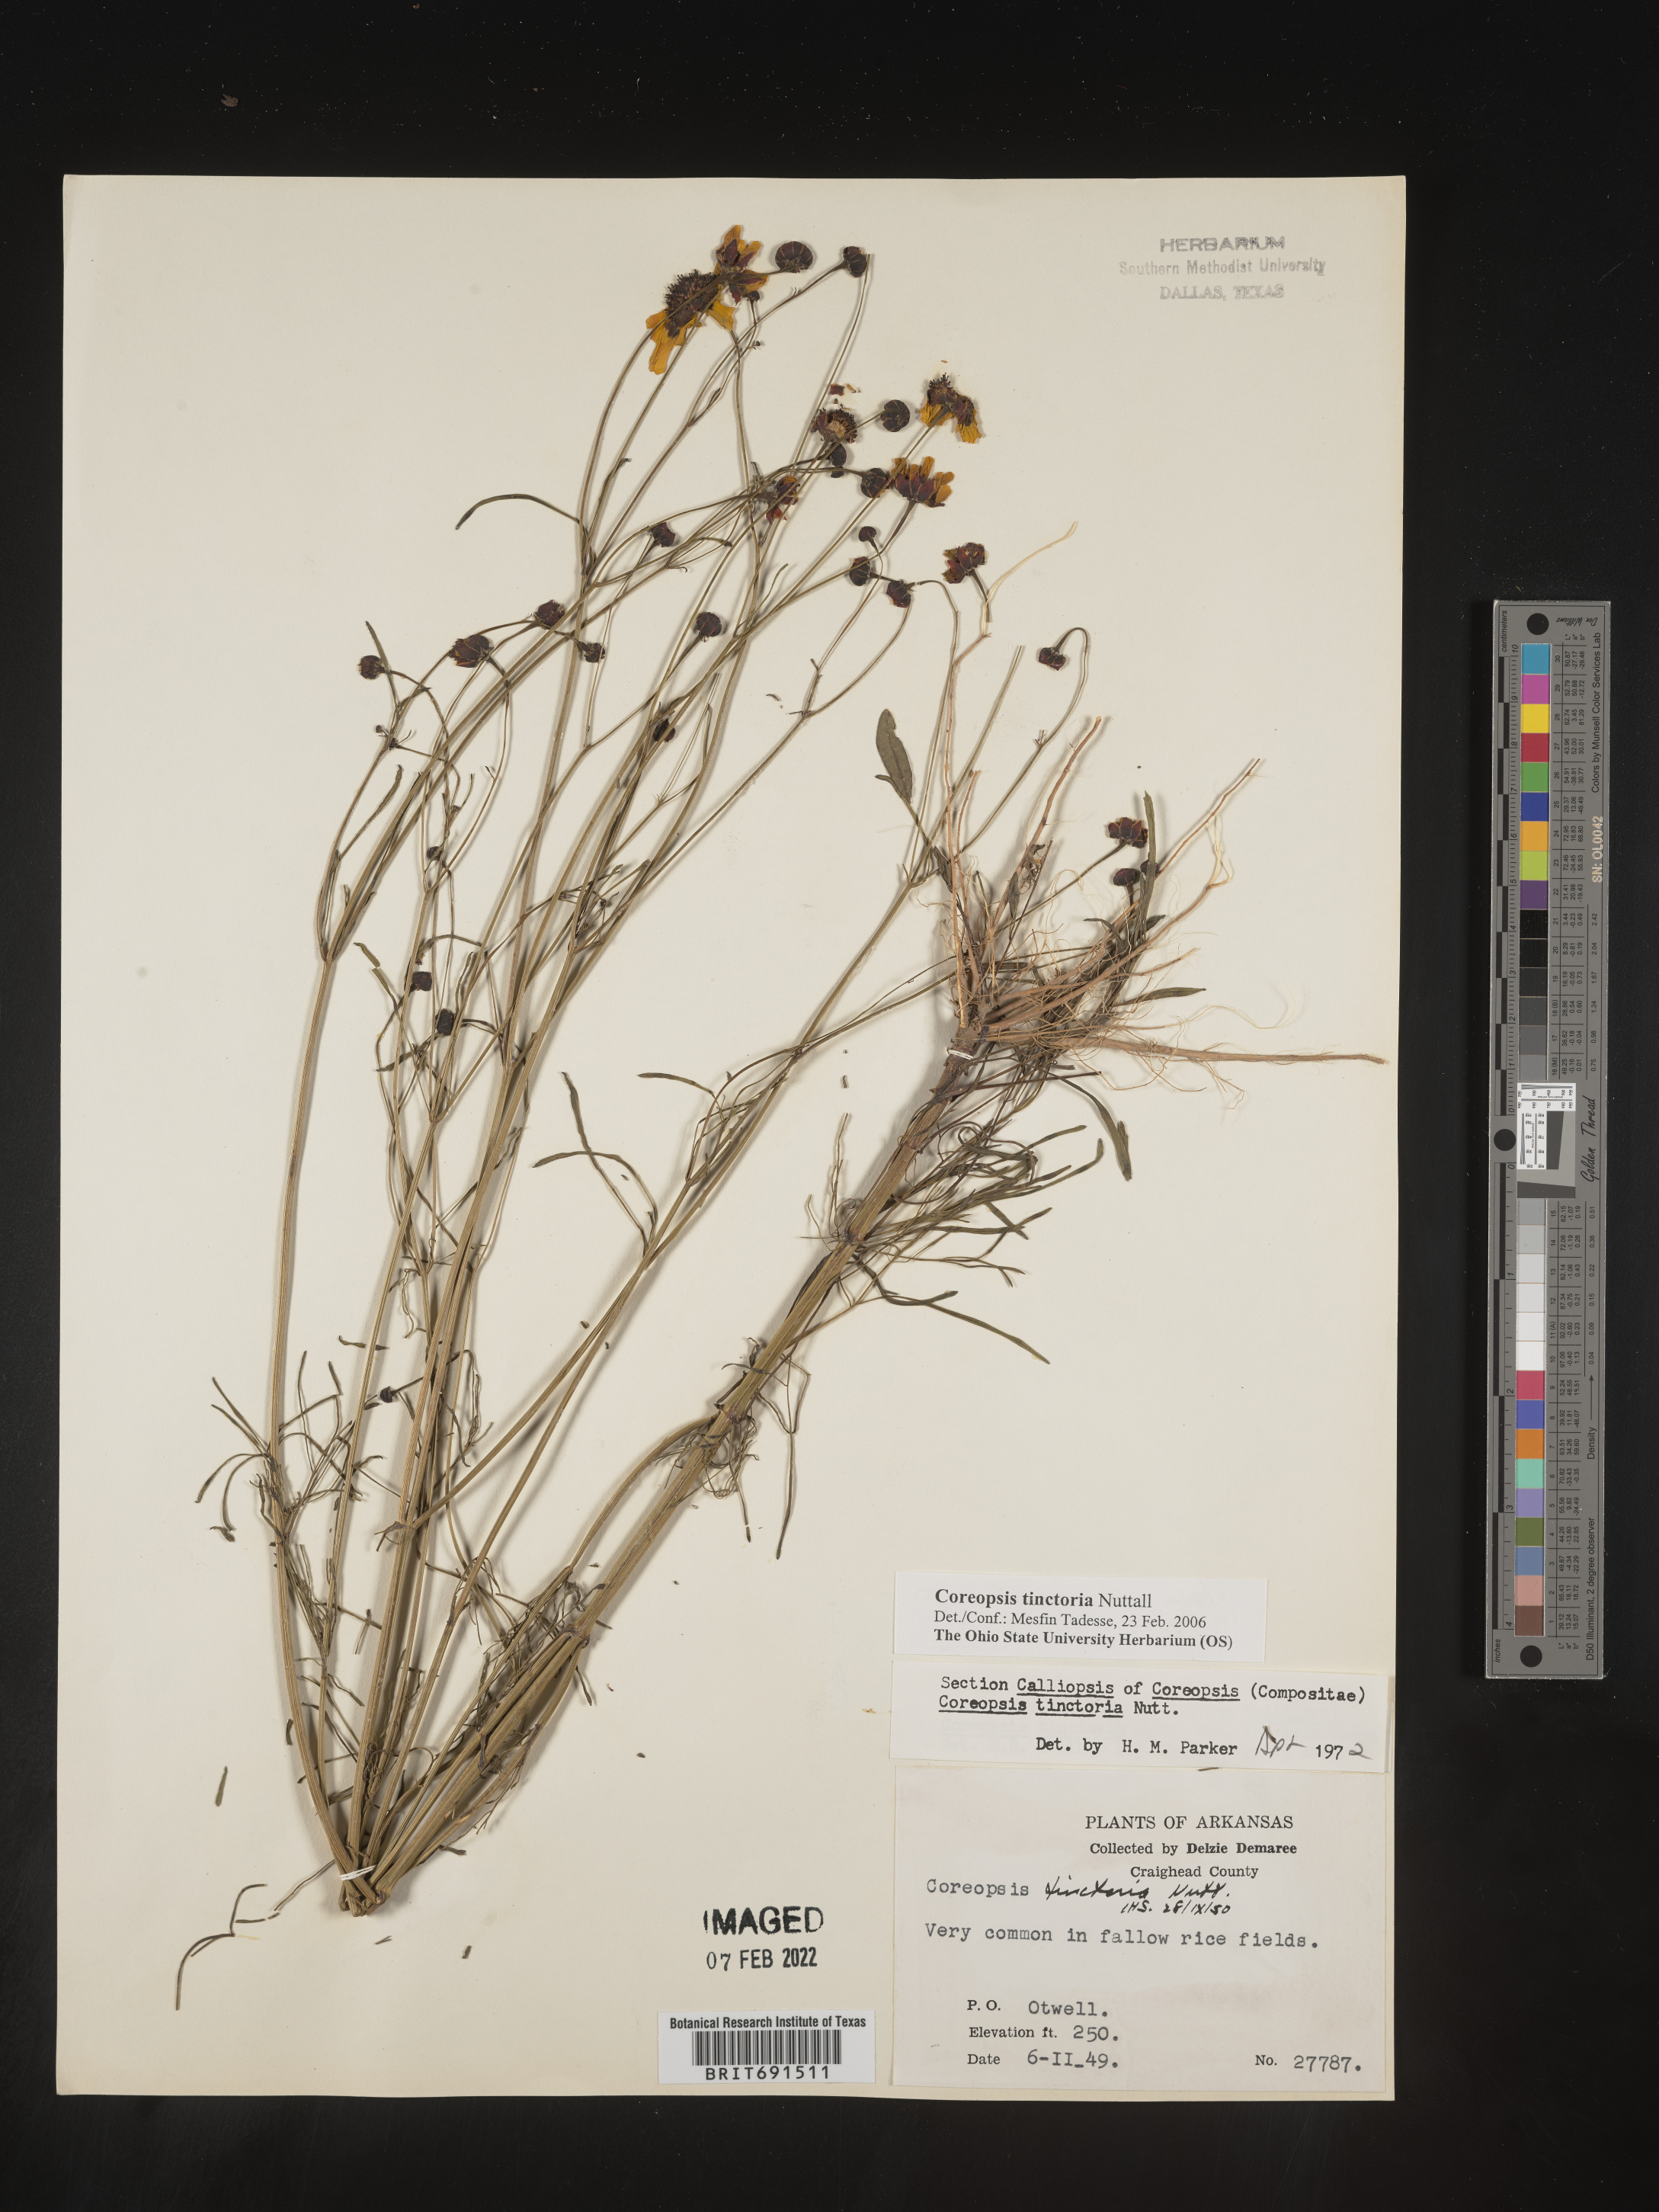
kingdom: Plantae
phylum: Tracheophyta
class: Magnoliopsida
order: Asterales
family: Asteraceae
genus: Coreopsis
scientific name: Coreopsis tinctoria
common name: Garden tickseed
